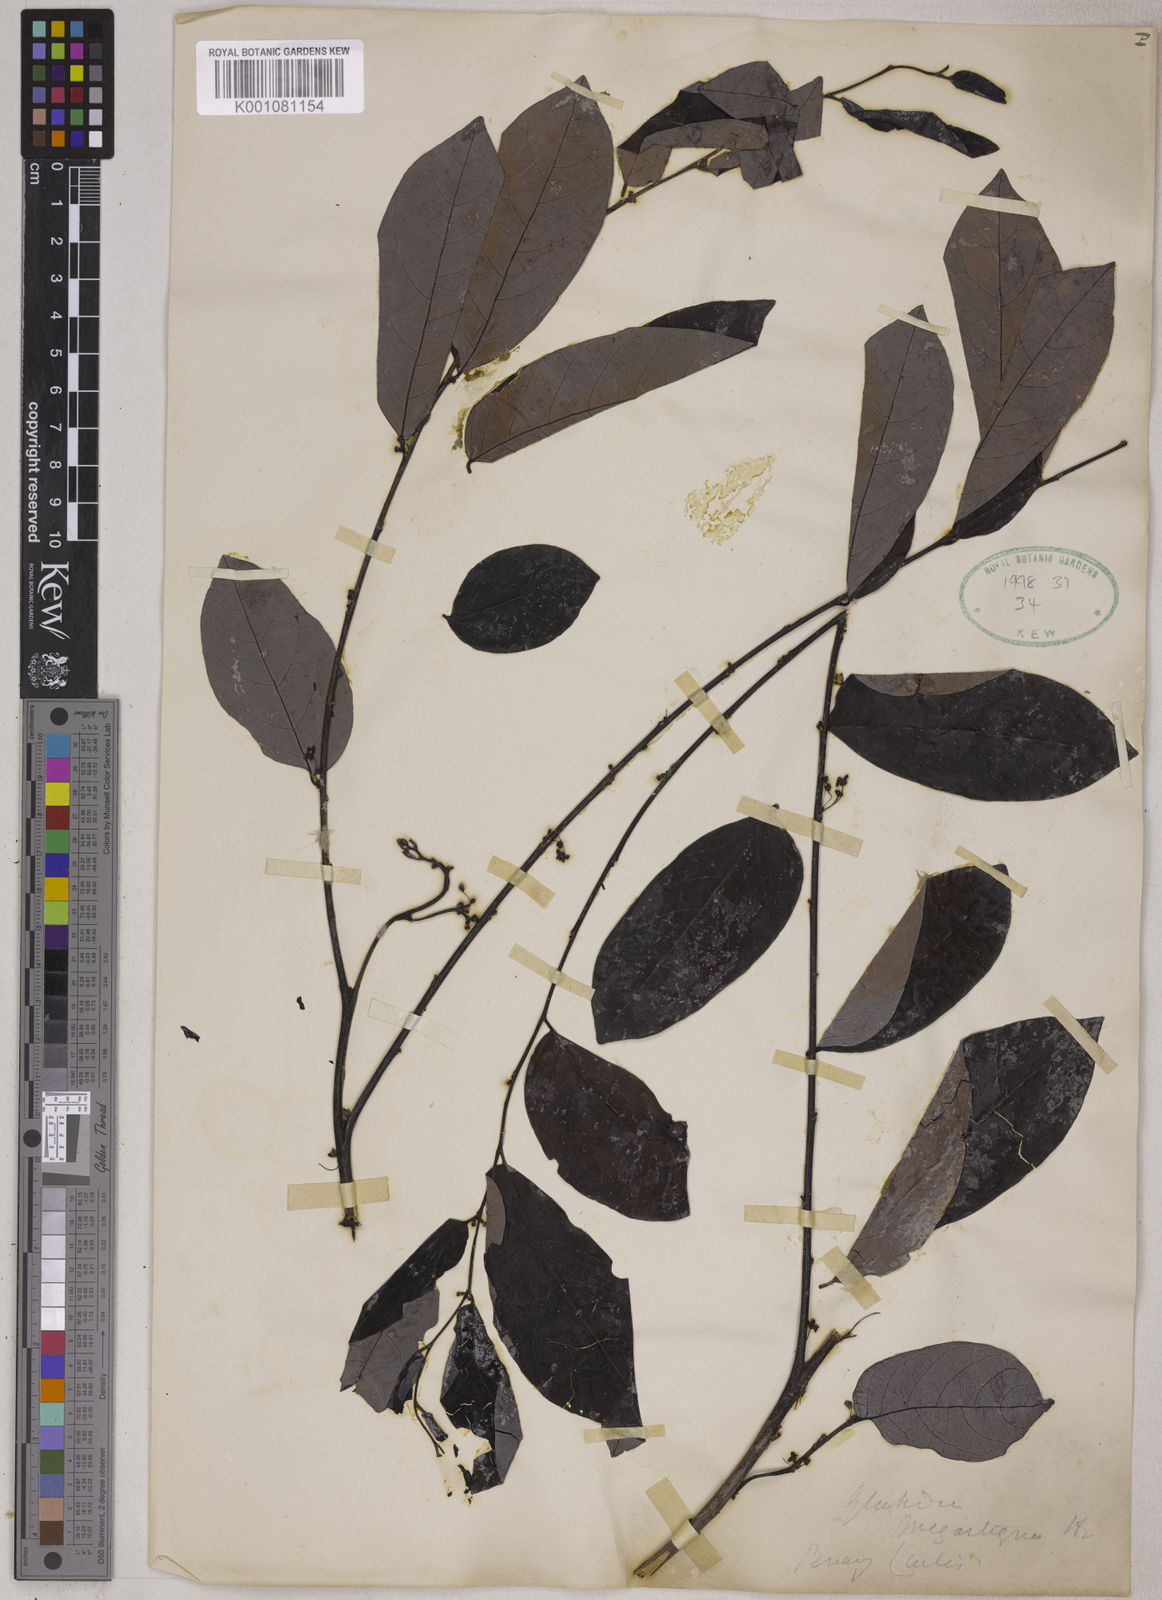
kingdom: Plantae
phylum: Tracheophyta
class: Magnoliopsida
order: Malpighiales
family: Phyllanthaceae
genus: Glochidion
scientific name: Glochidion macrostigma
